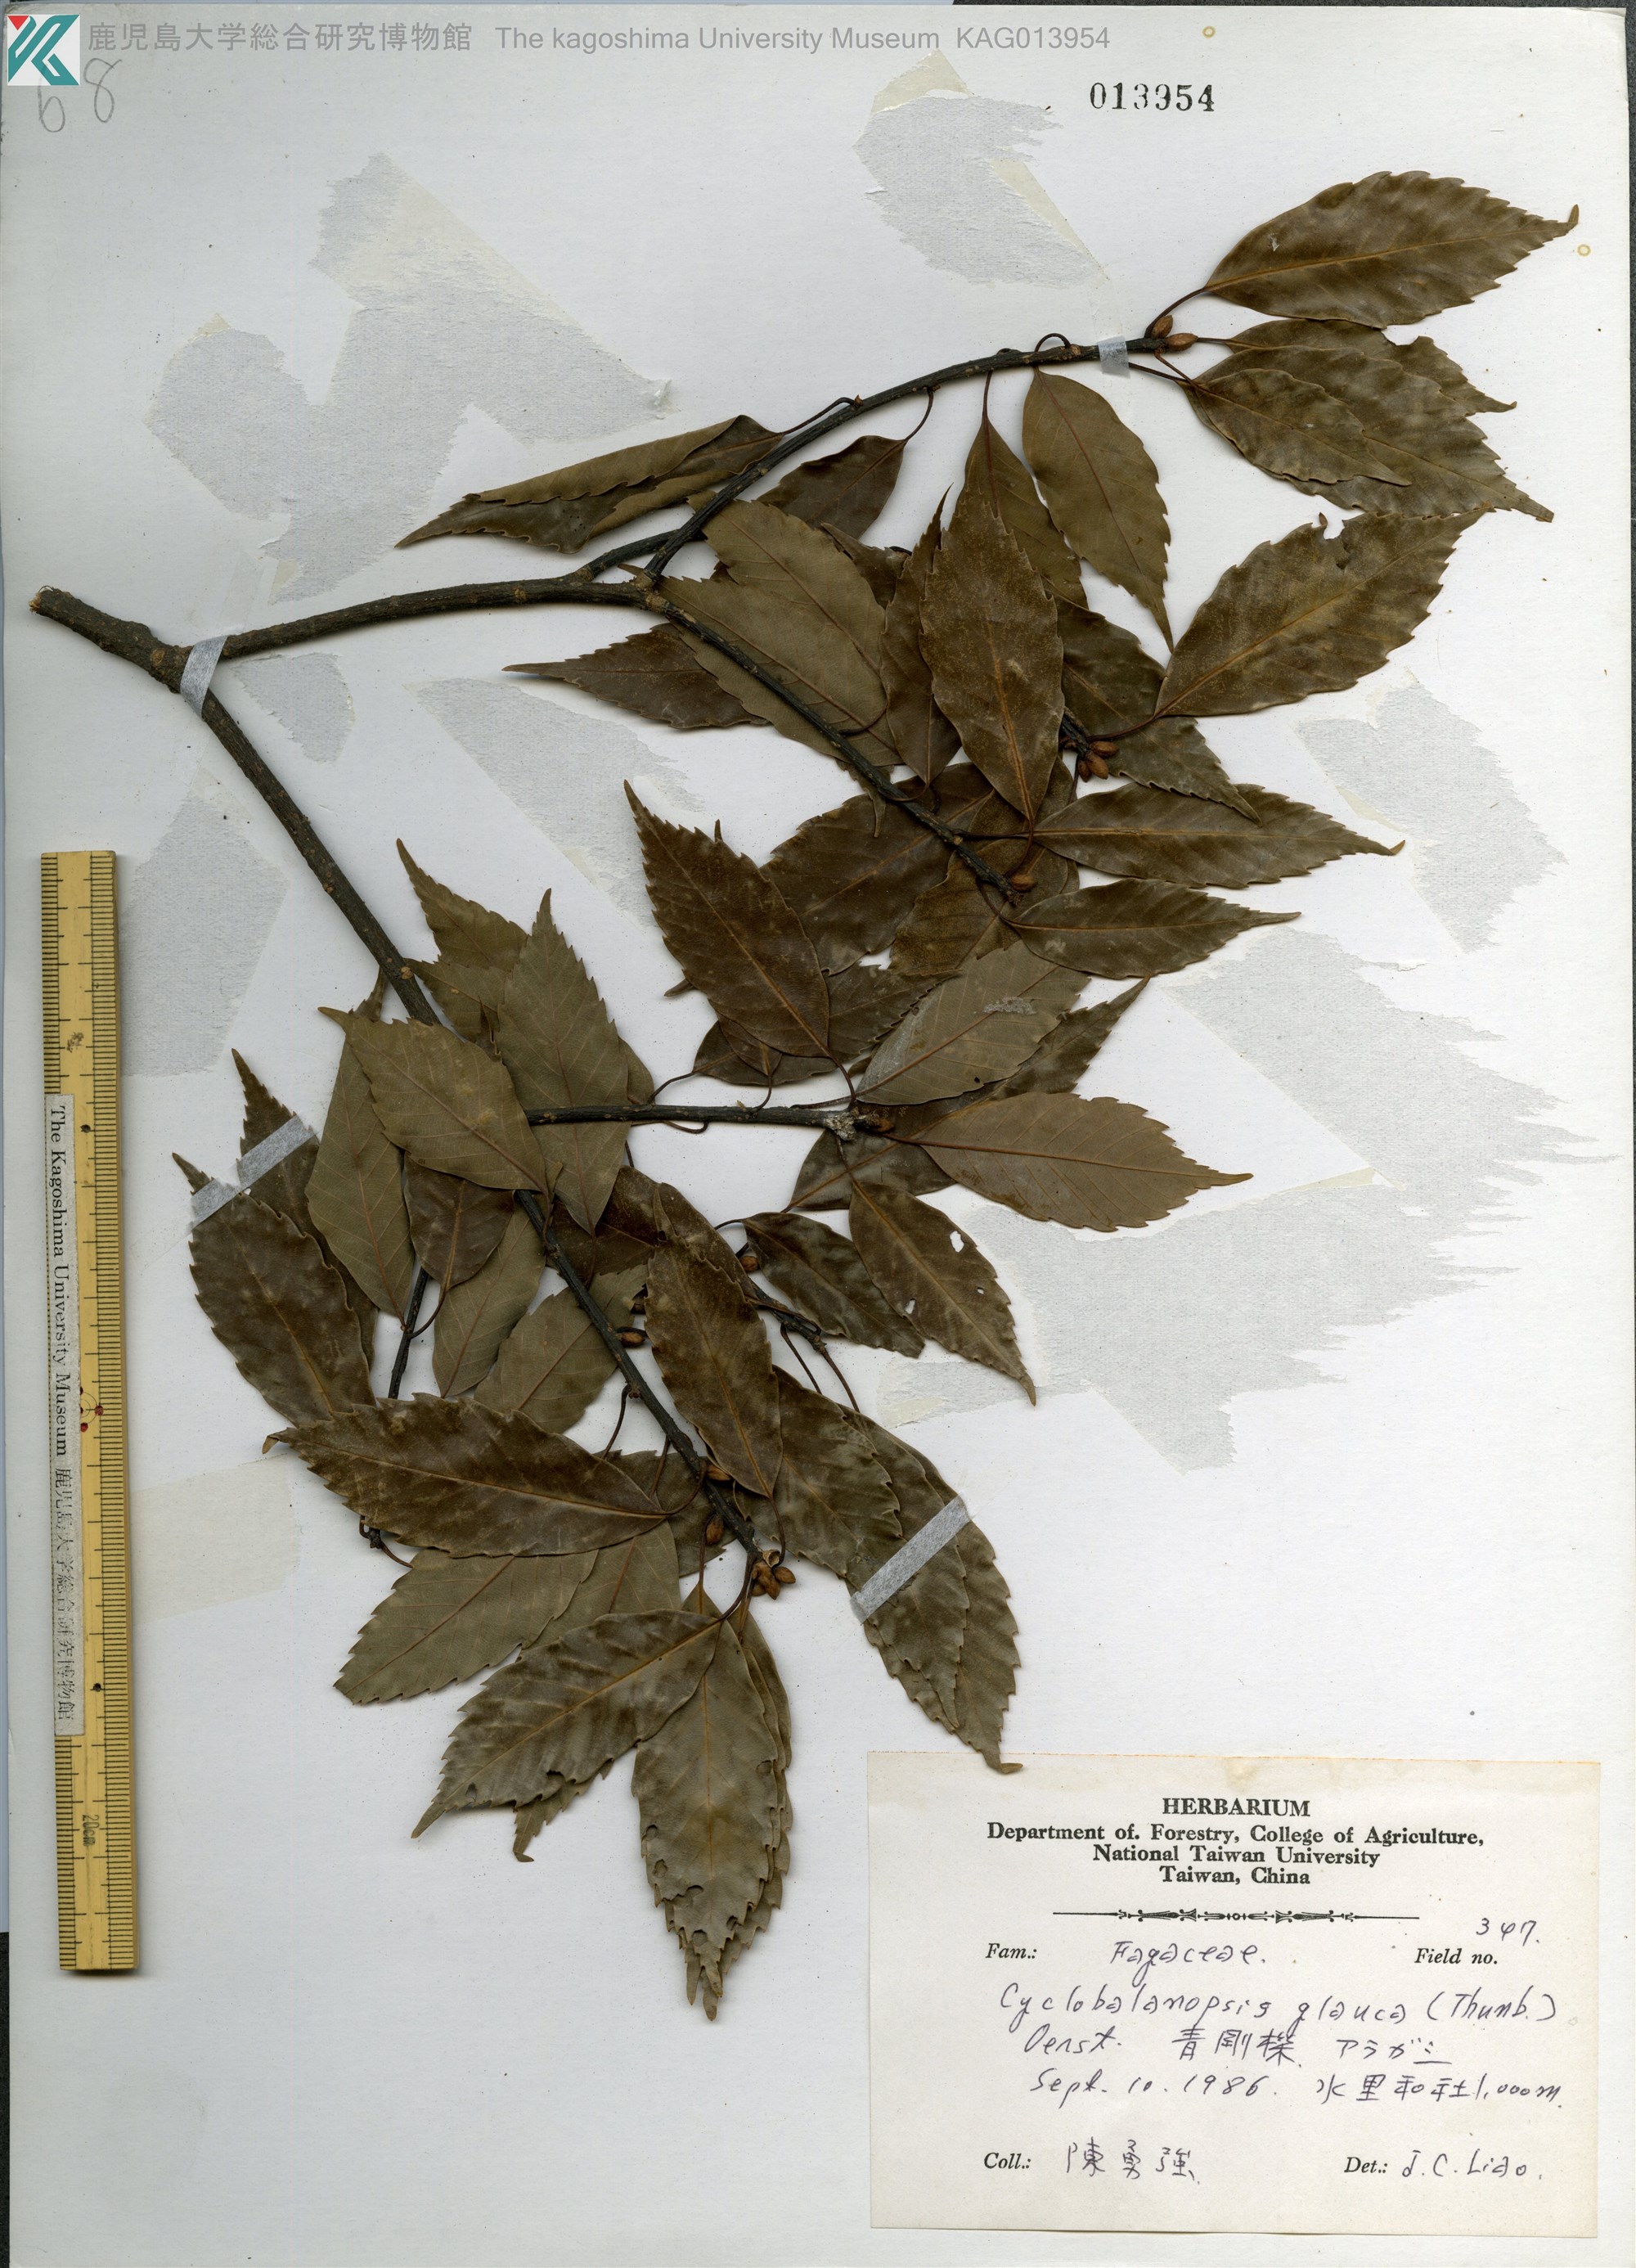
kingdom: Plantae
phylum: Tracheophyta
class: Magnoliopsida
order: Fagales
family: Fagaceae
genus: Quercus
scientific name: Quercus glauca
